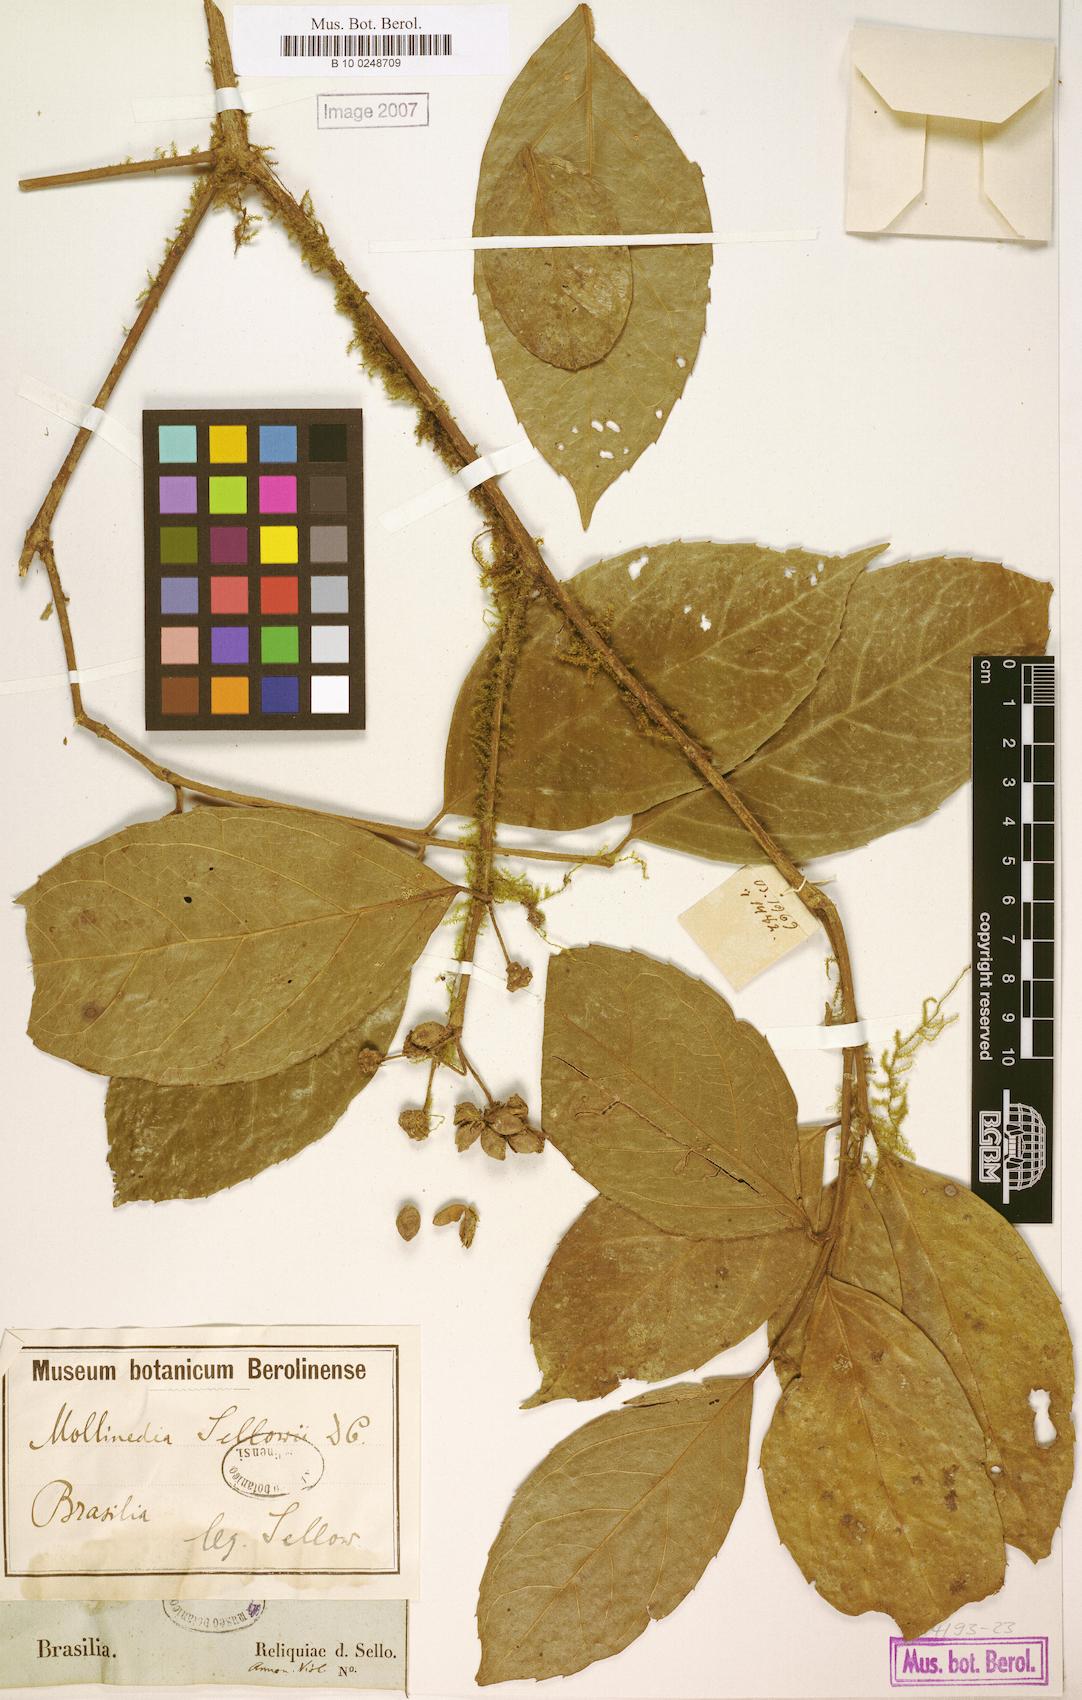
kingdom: Plantae
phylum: Tracheophyta
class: Magnoliopsida
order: Laurales
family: Monimiaceae
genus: Mollinedia
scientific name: Mollinedia ovata
